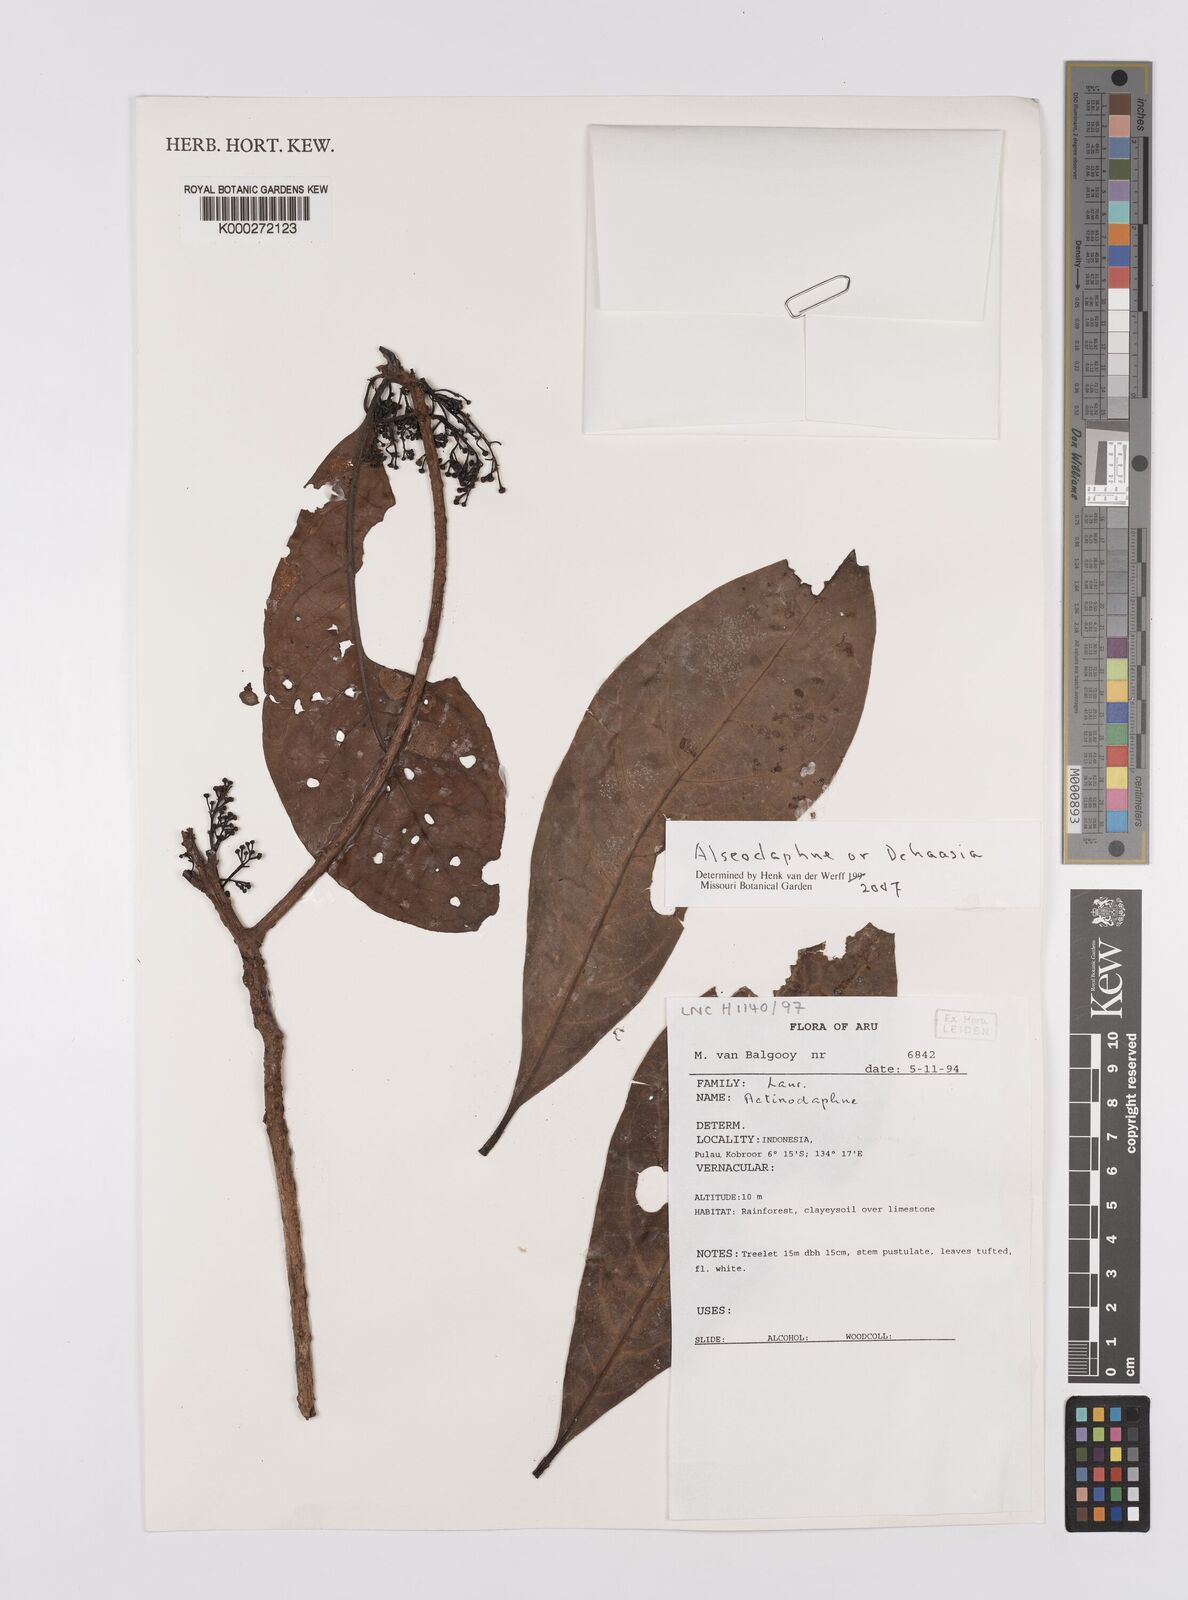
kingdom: Plantae
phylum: Tracheophyta
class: Magnoliopsida
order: Laurales
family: Lauraceae
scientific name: Lauraceae
